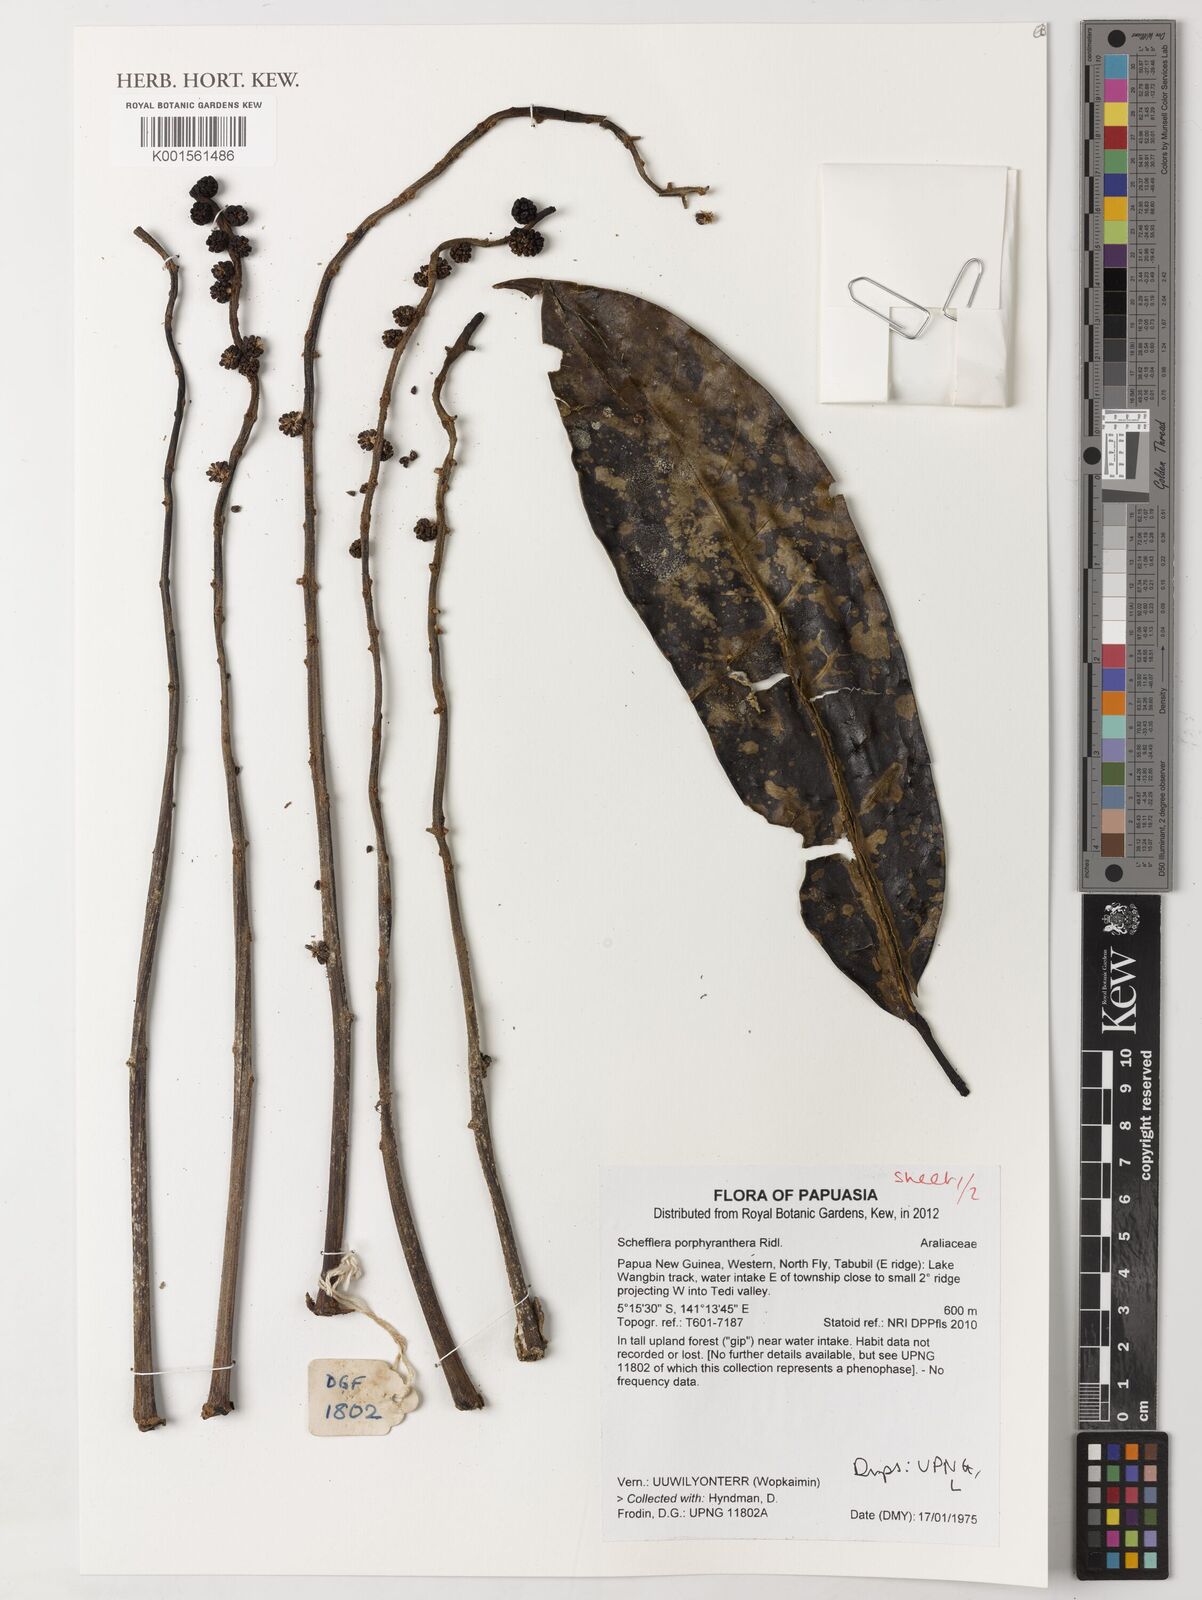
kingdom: Plantae
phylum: Tracheophyta
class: Magnoliopsida
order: Apiales
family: Araliaceae
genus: Heptapleurum
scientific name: Heptapleurum porphyrantherum
